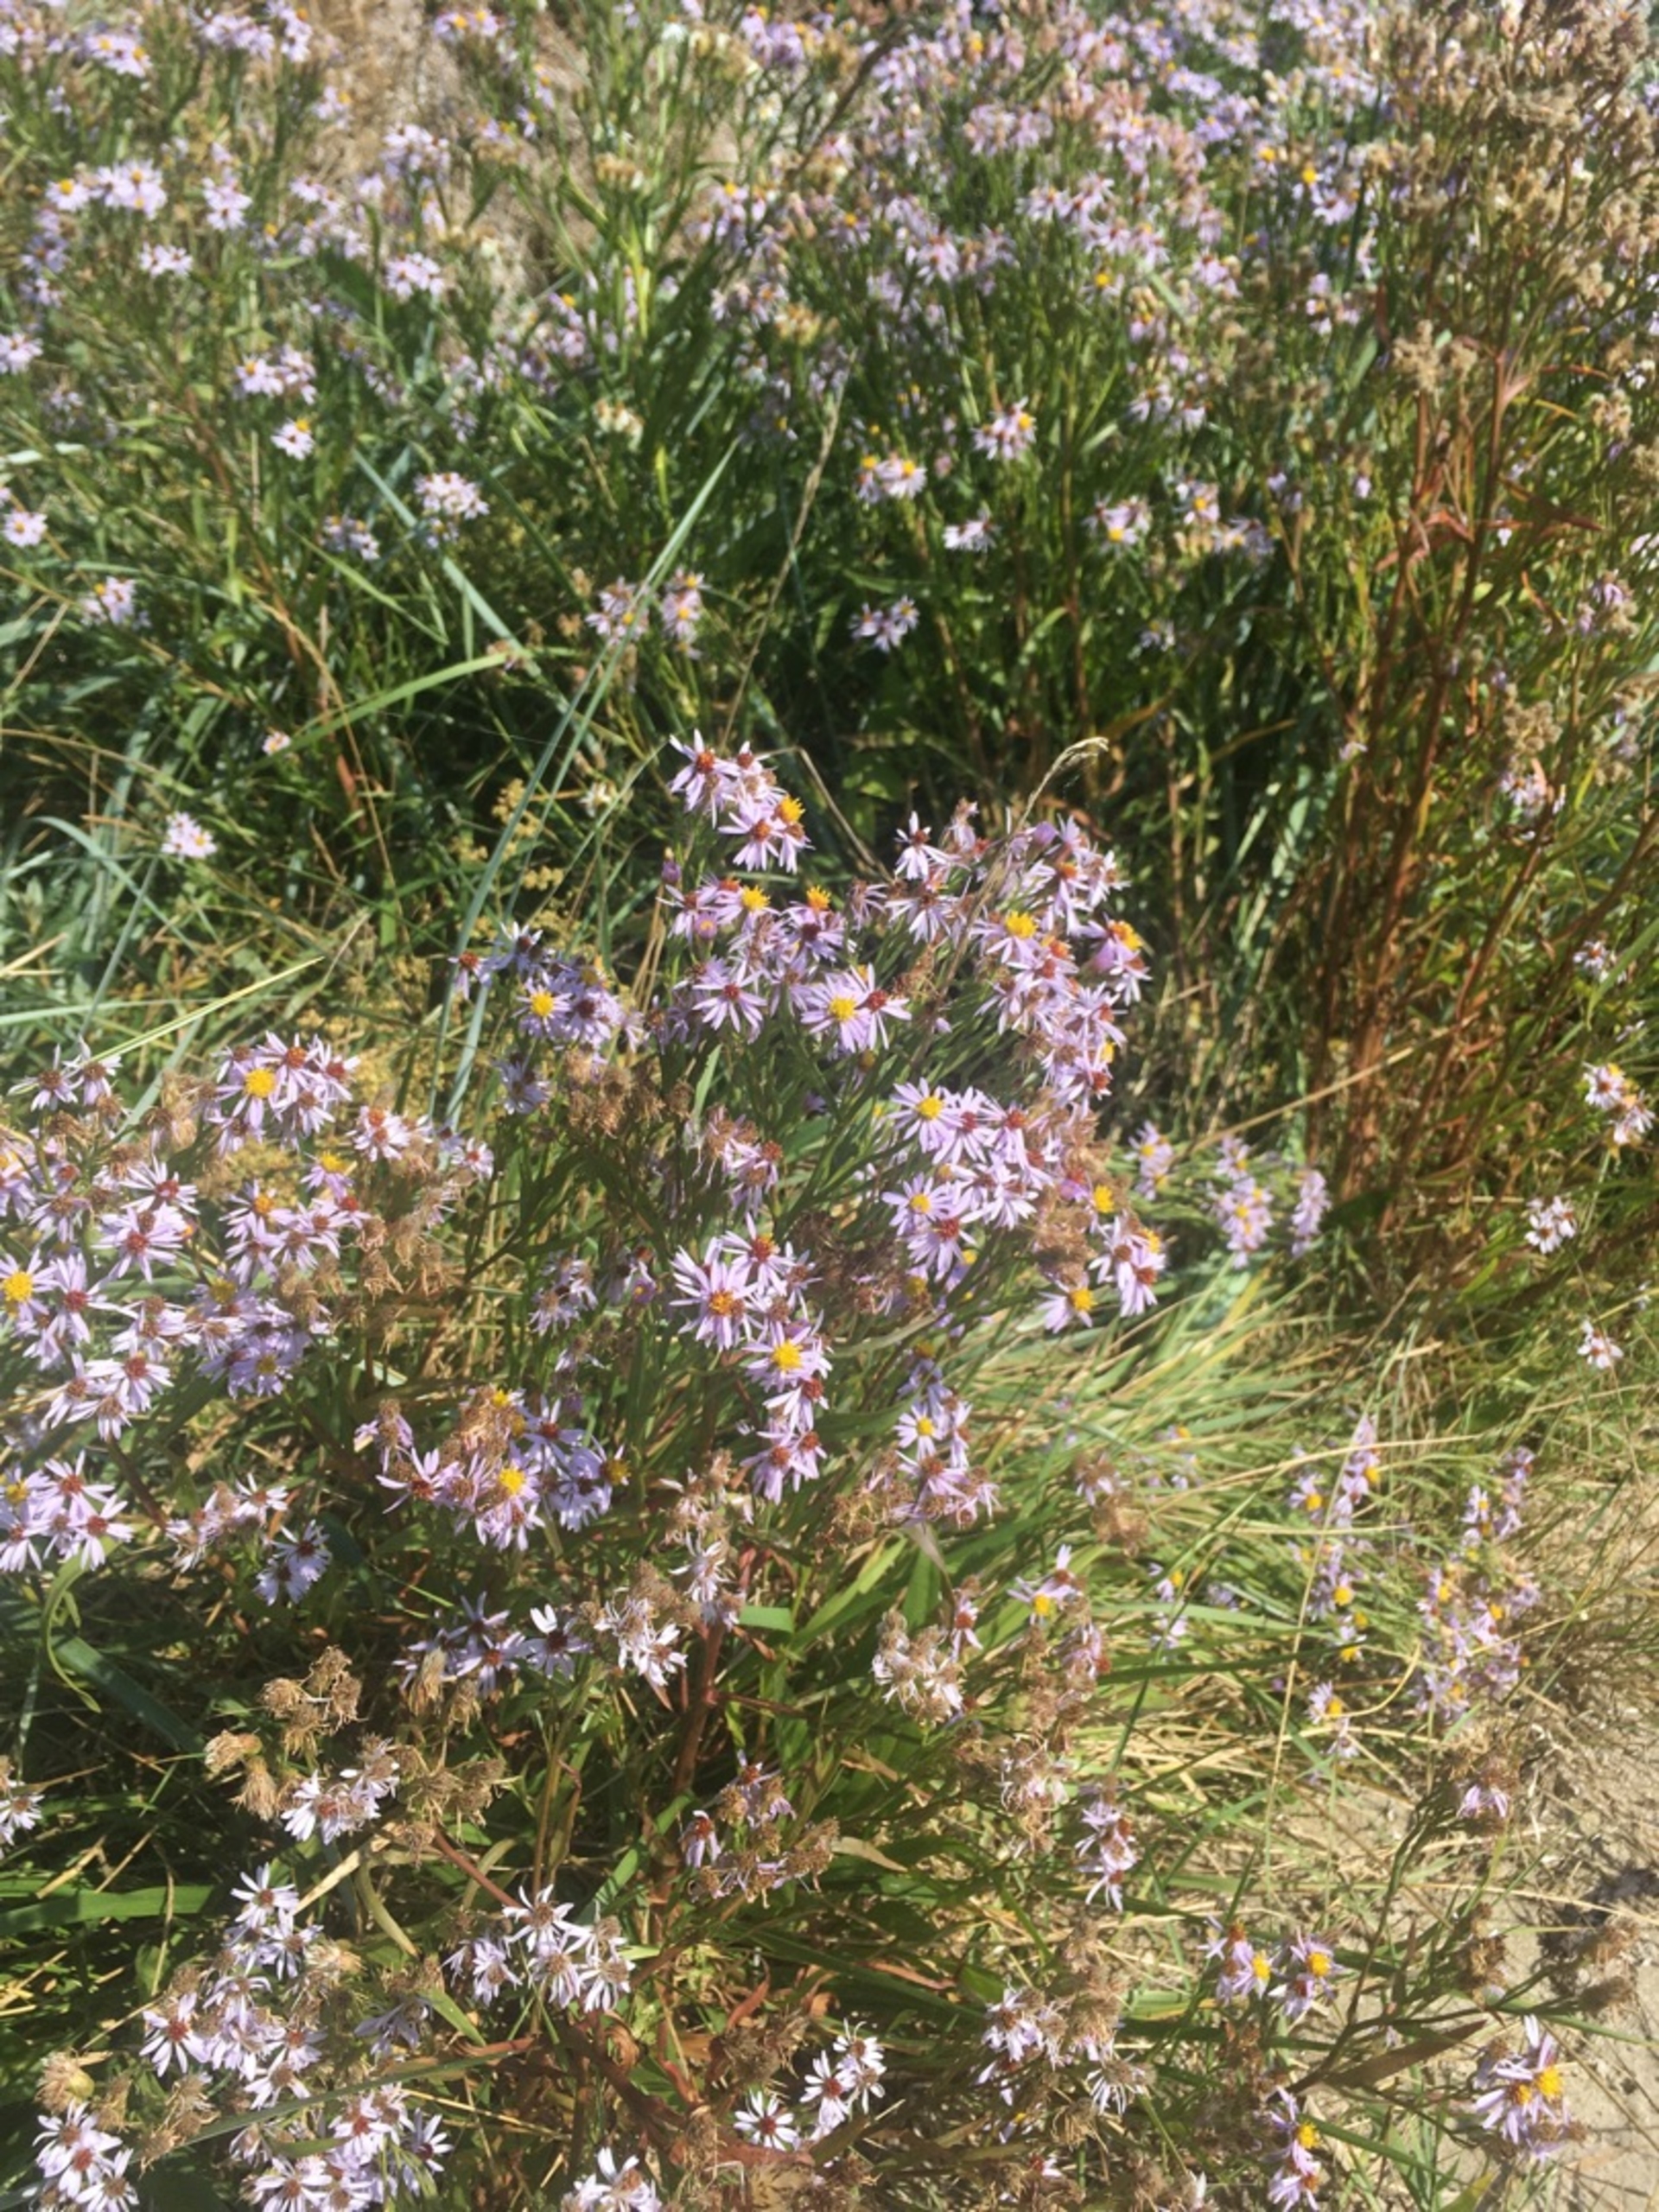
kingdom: Plantae
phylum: Tracheophyta
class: Magnoliopsida
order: Asterales
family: Asteraceae
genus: Tripolium
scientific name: Tripolium pannonicum
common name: Strandasters
